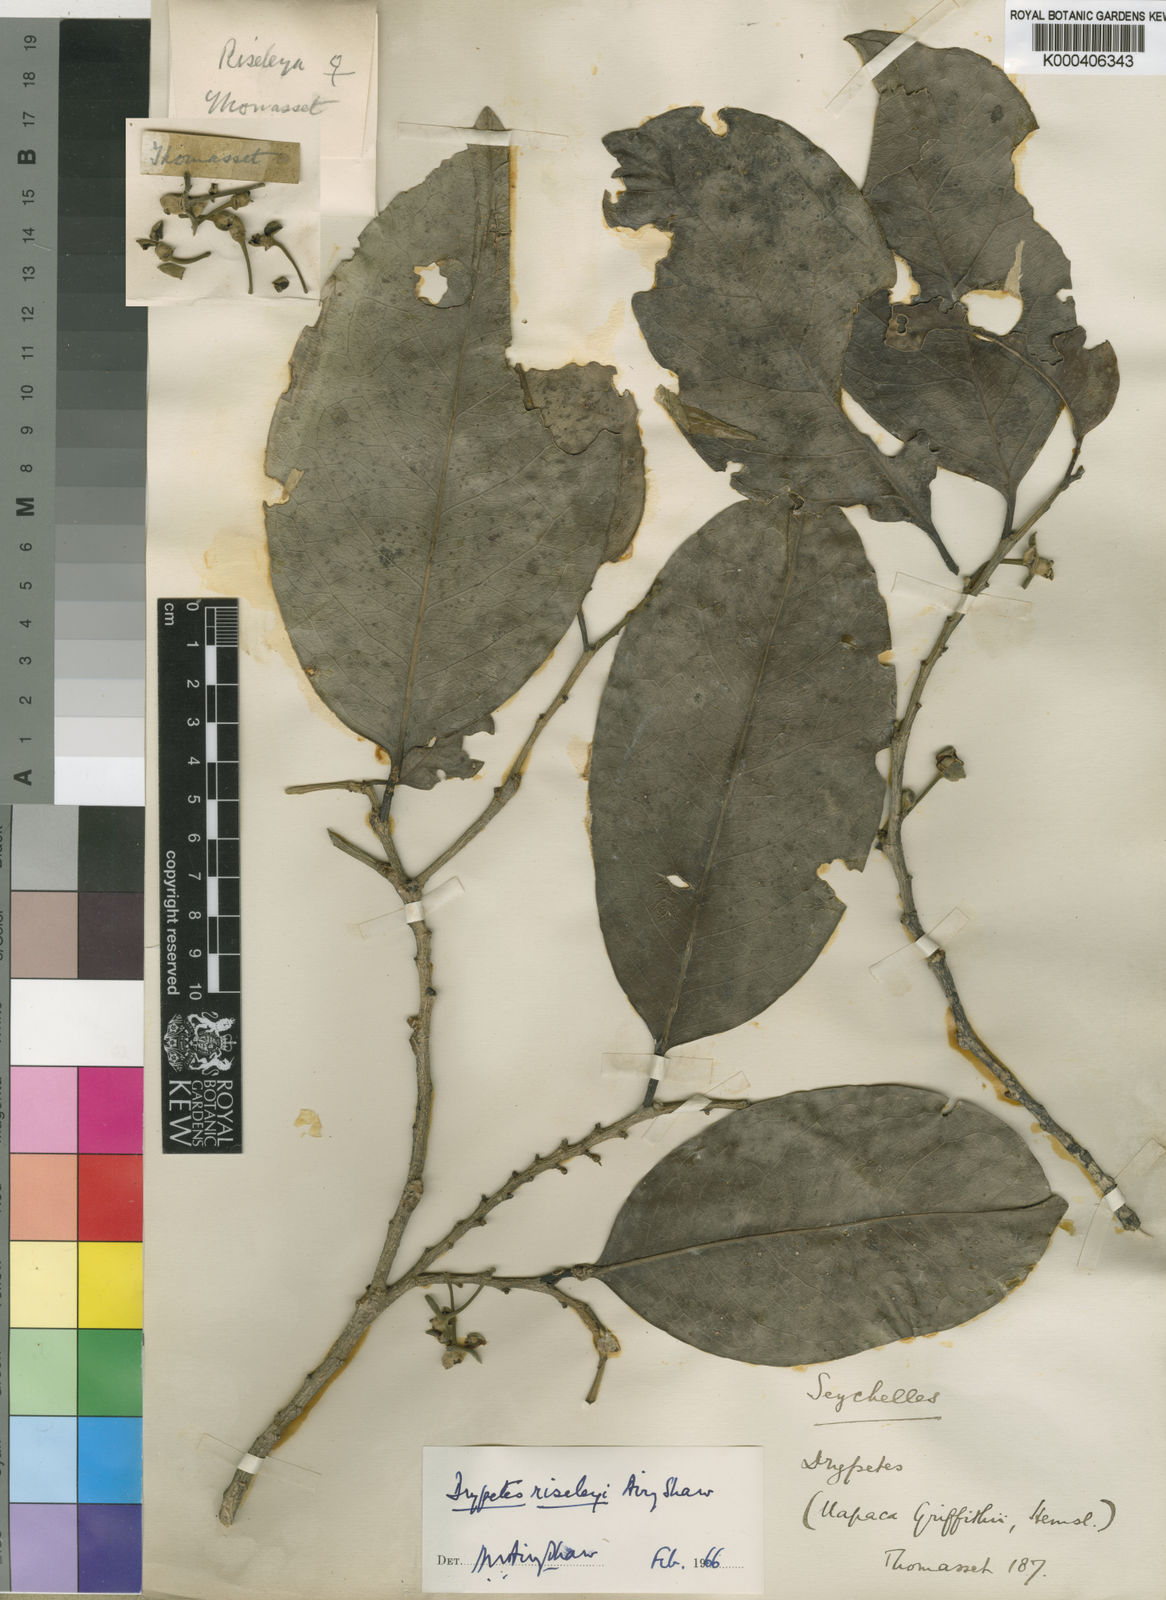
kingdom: Plantae
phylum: Tracheophyta
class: Magnoliopsida
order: Malpighiales
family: Putranjivaceae
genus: Drypetes
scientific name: Drypetes riseleyi
